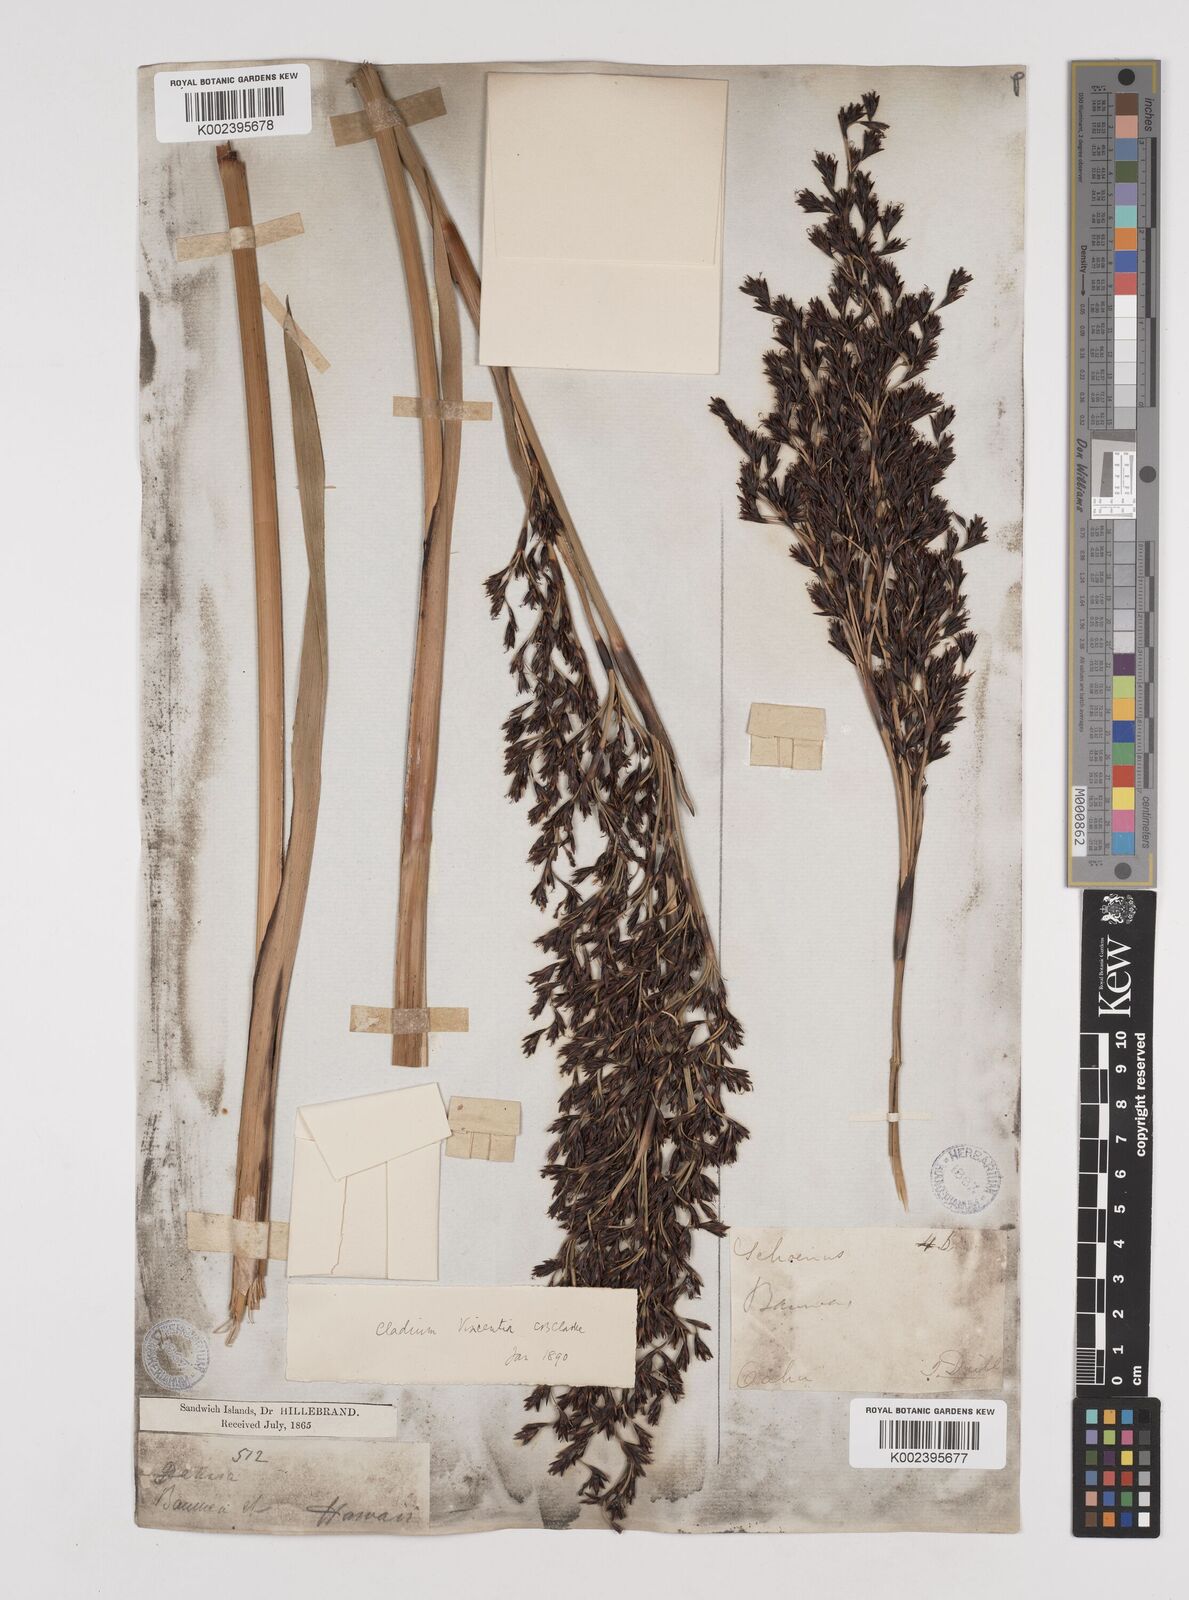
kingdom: Plantae
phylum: Tracheophyta
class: Liliopsida
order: Poales
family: Cyperaceae
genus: Machaerina
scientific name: Machaerina angustifolia
